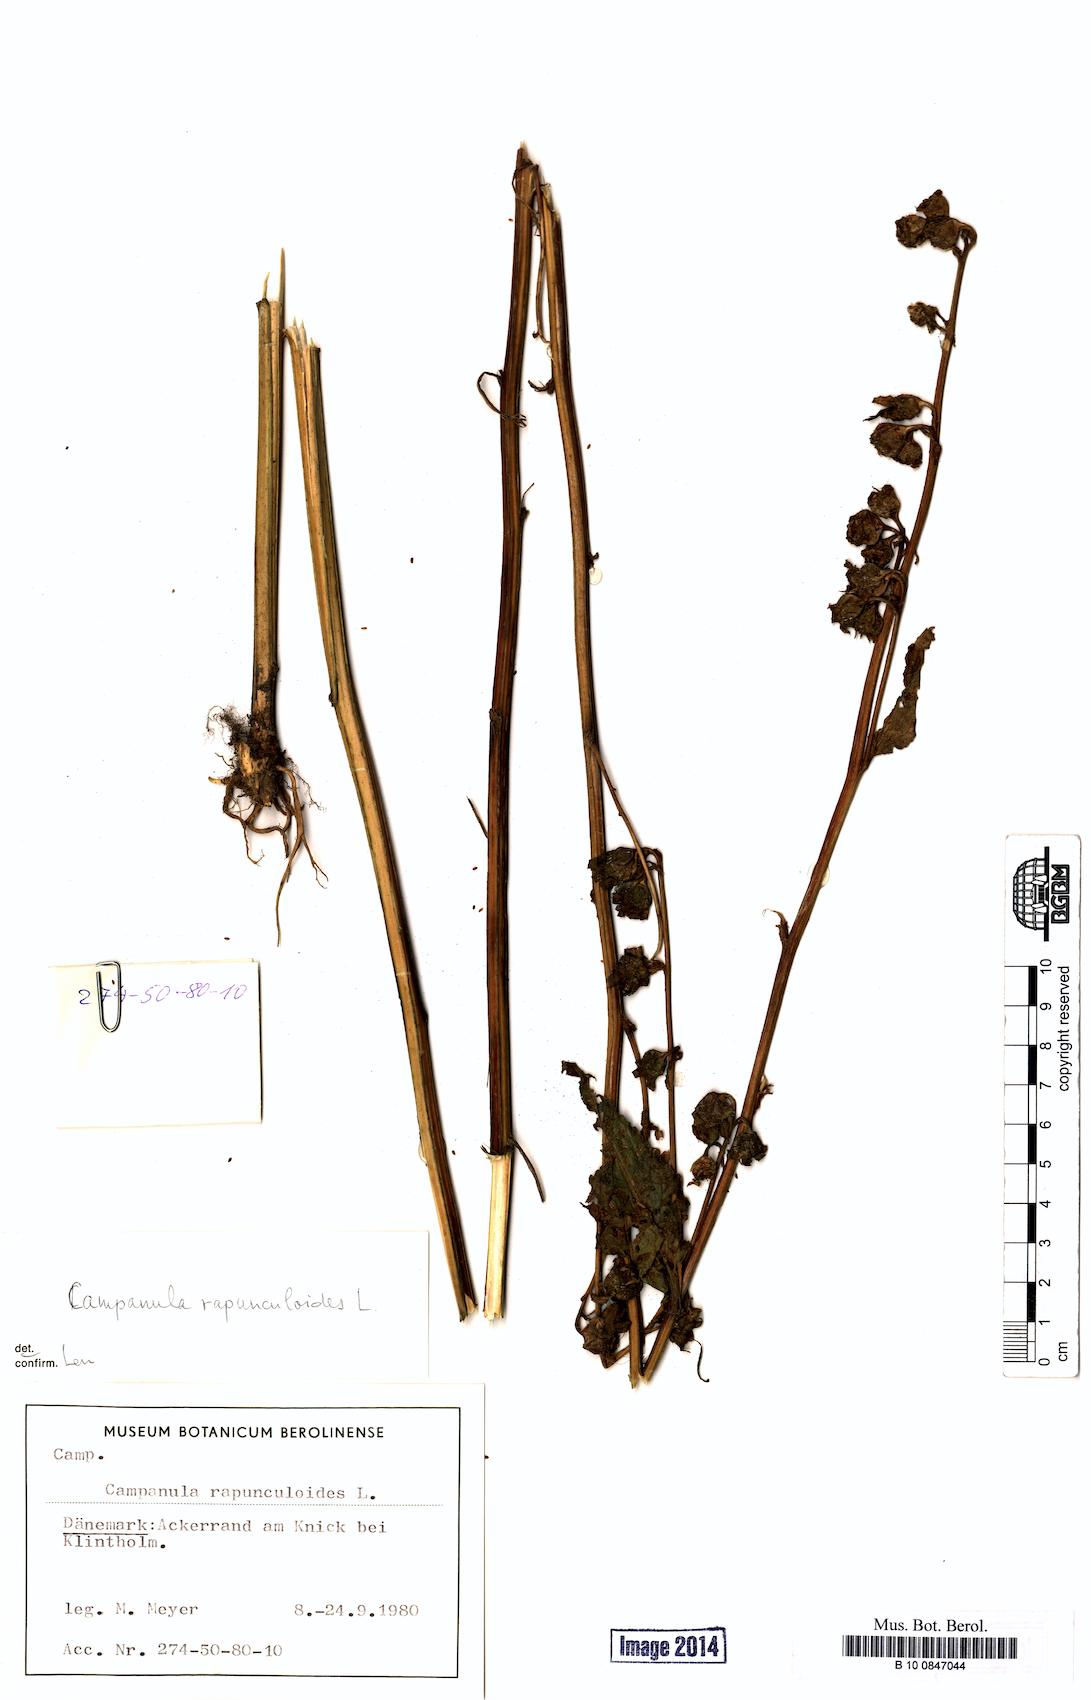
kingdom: Plantae
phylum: Tracheophyta
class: Magnoliopsida
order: Asterales
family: Campanulaceae
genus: Campanula
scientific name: Campanula rapunculoides
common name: Creeping bellflower
